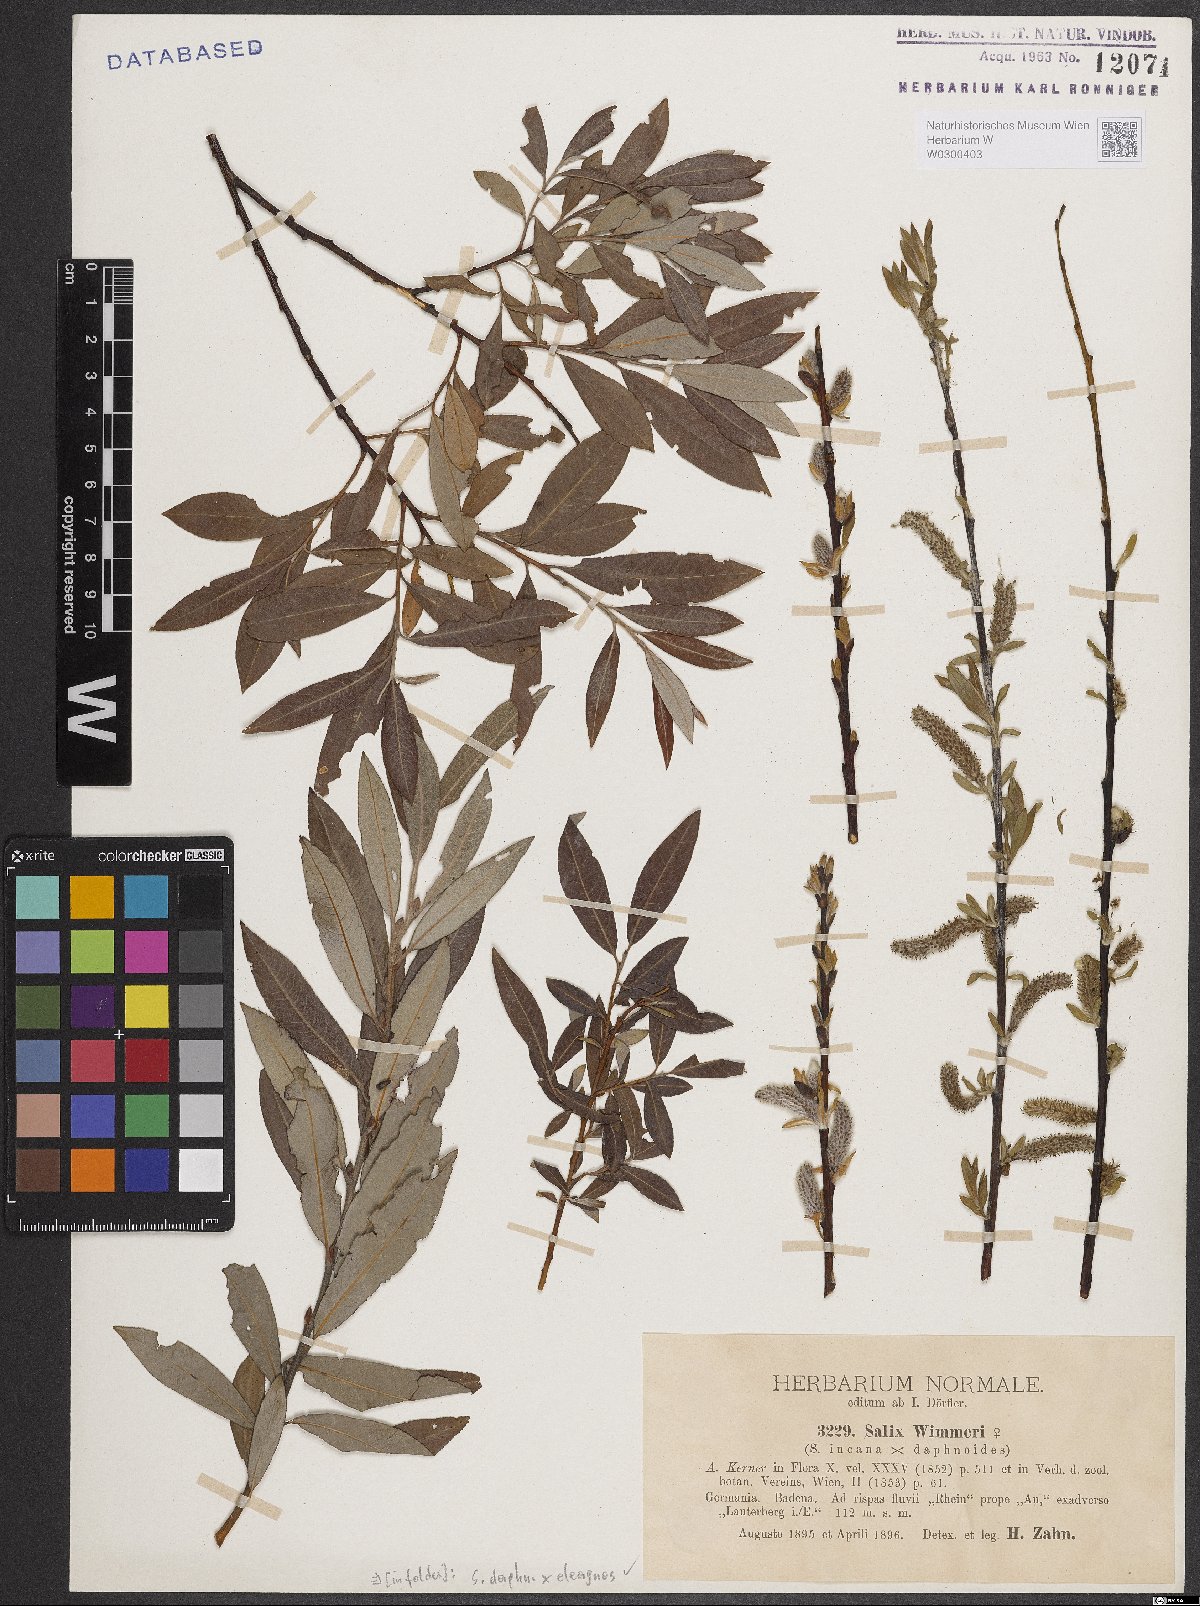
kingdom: Plantae
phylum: Tracheophyta
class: Magnoliopsida
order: Malpighiales
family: Salicaceae
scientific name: Salicaceae
